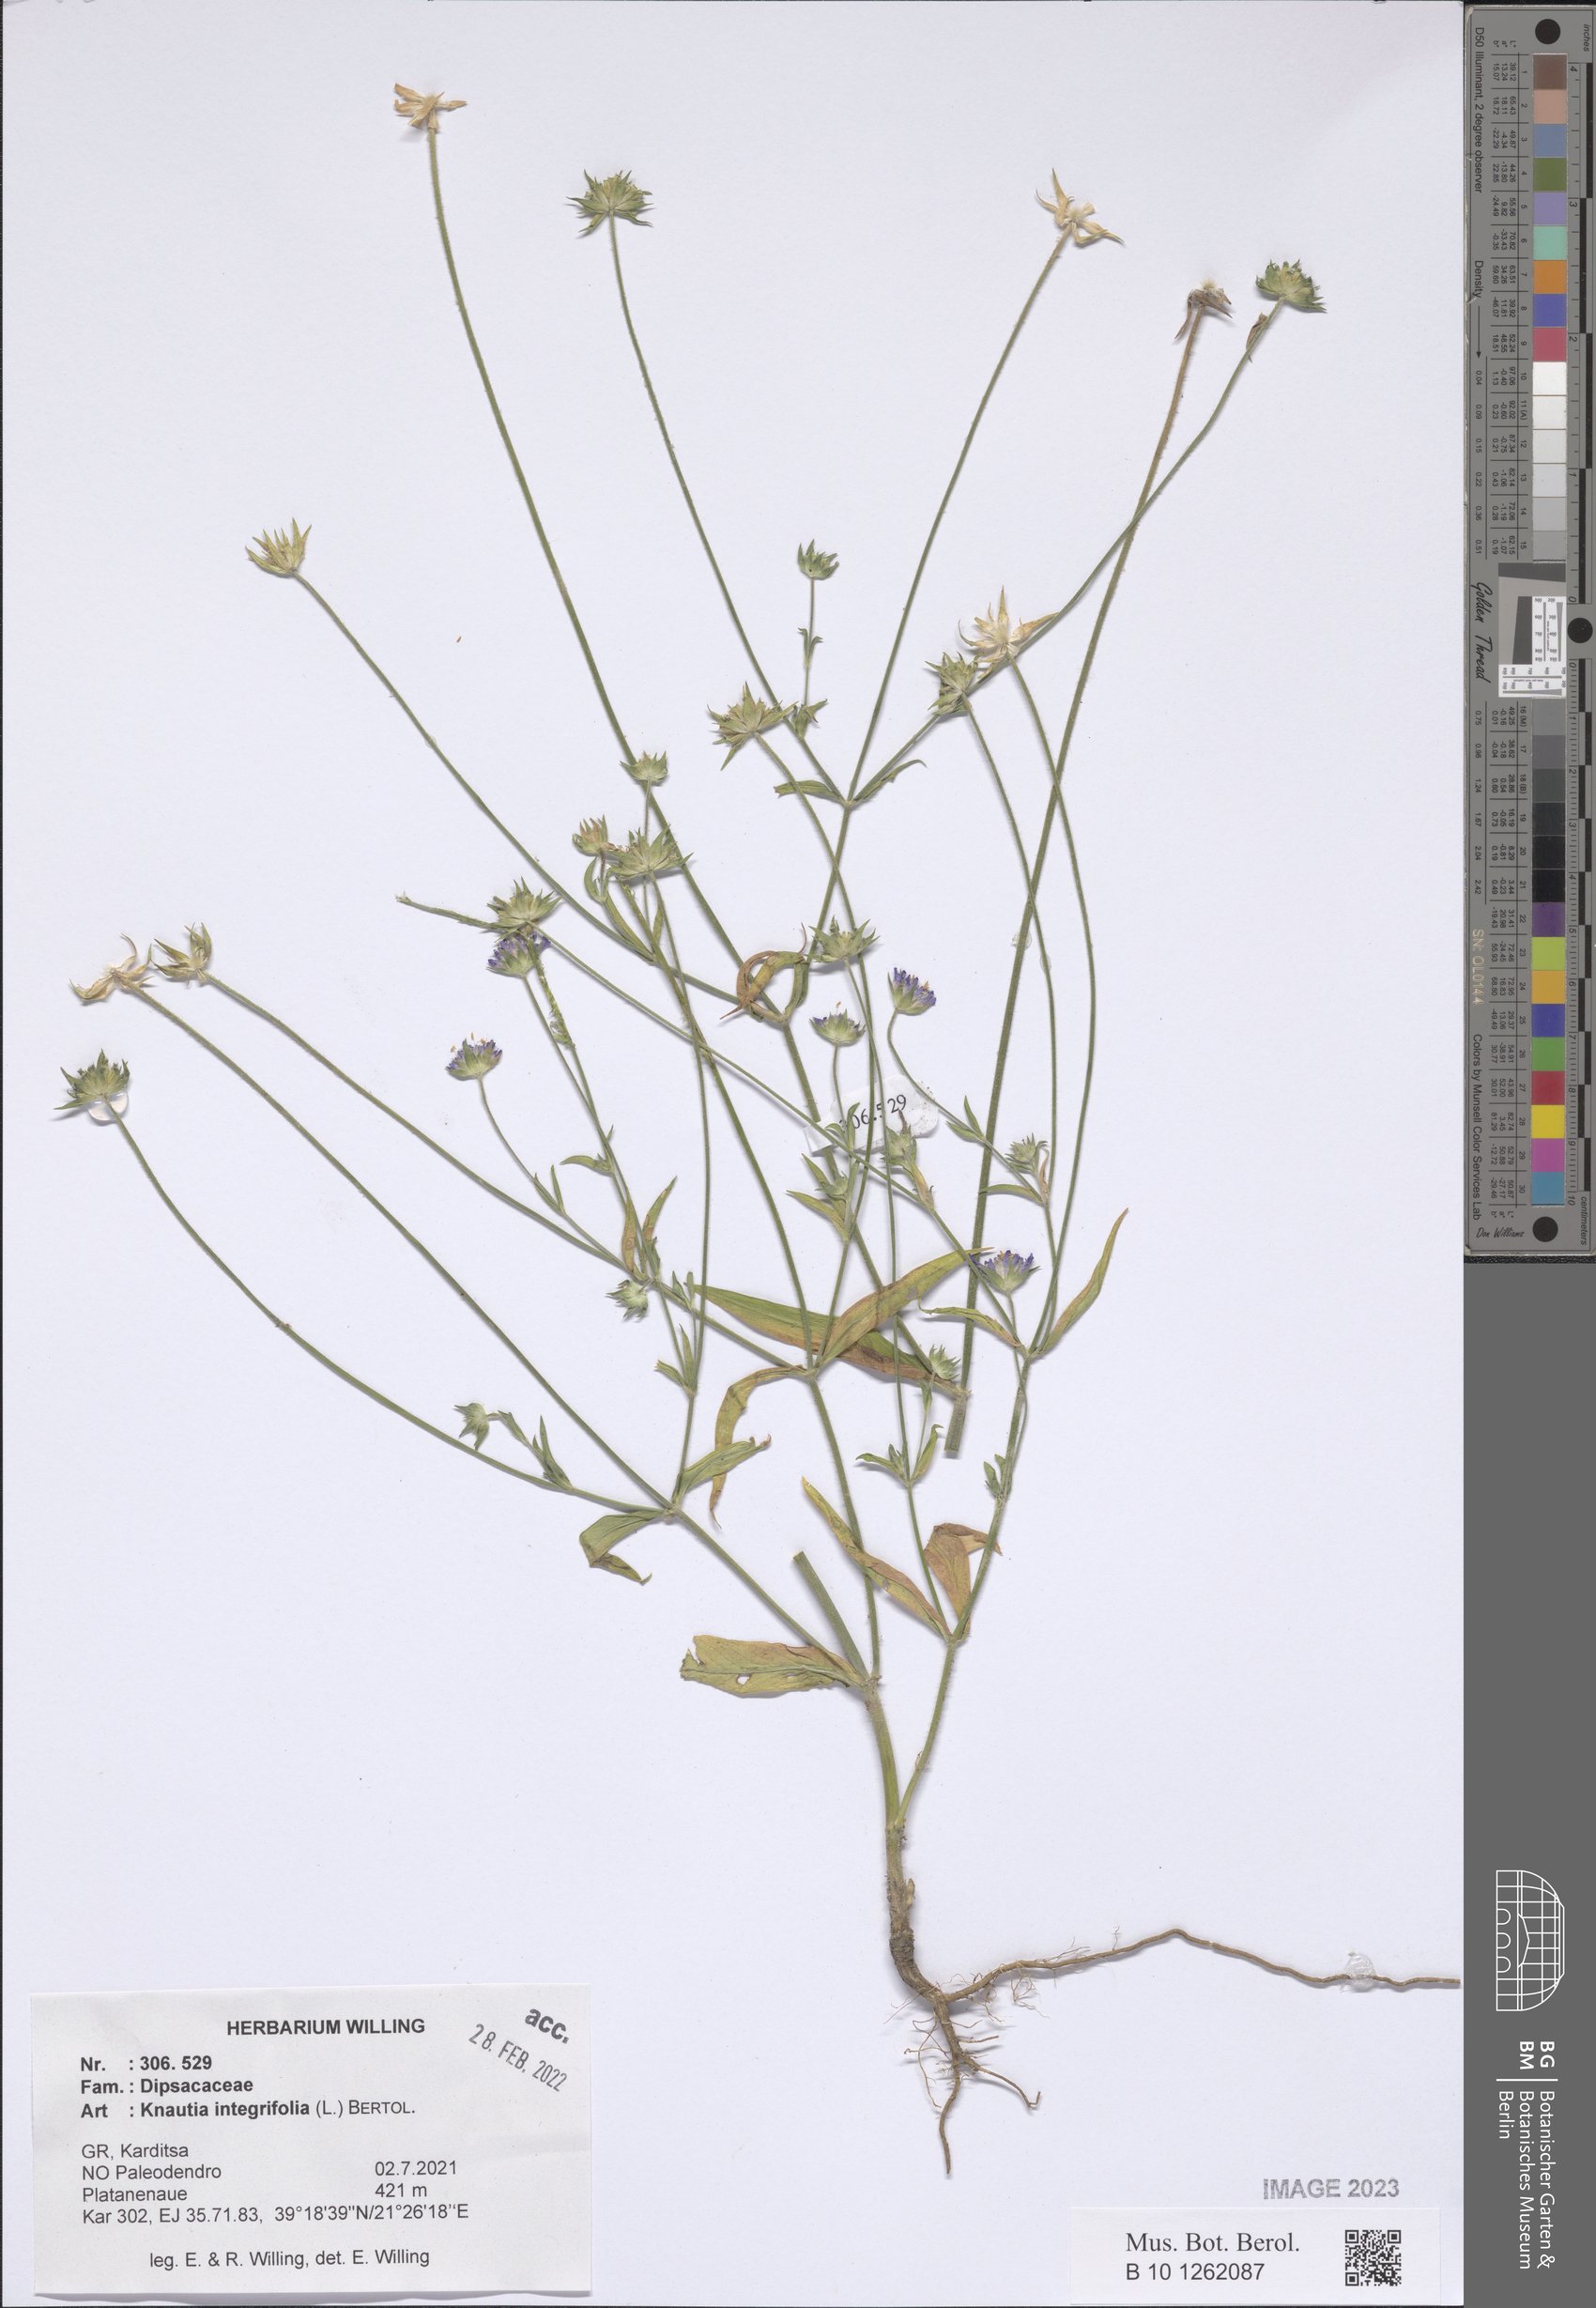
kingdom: Plantae
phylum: Tracheophyta
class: Magnoliopsida
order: Dipsacales
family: Caprifoliaceae
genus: Knautia
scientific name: Knautia integrifolia
